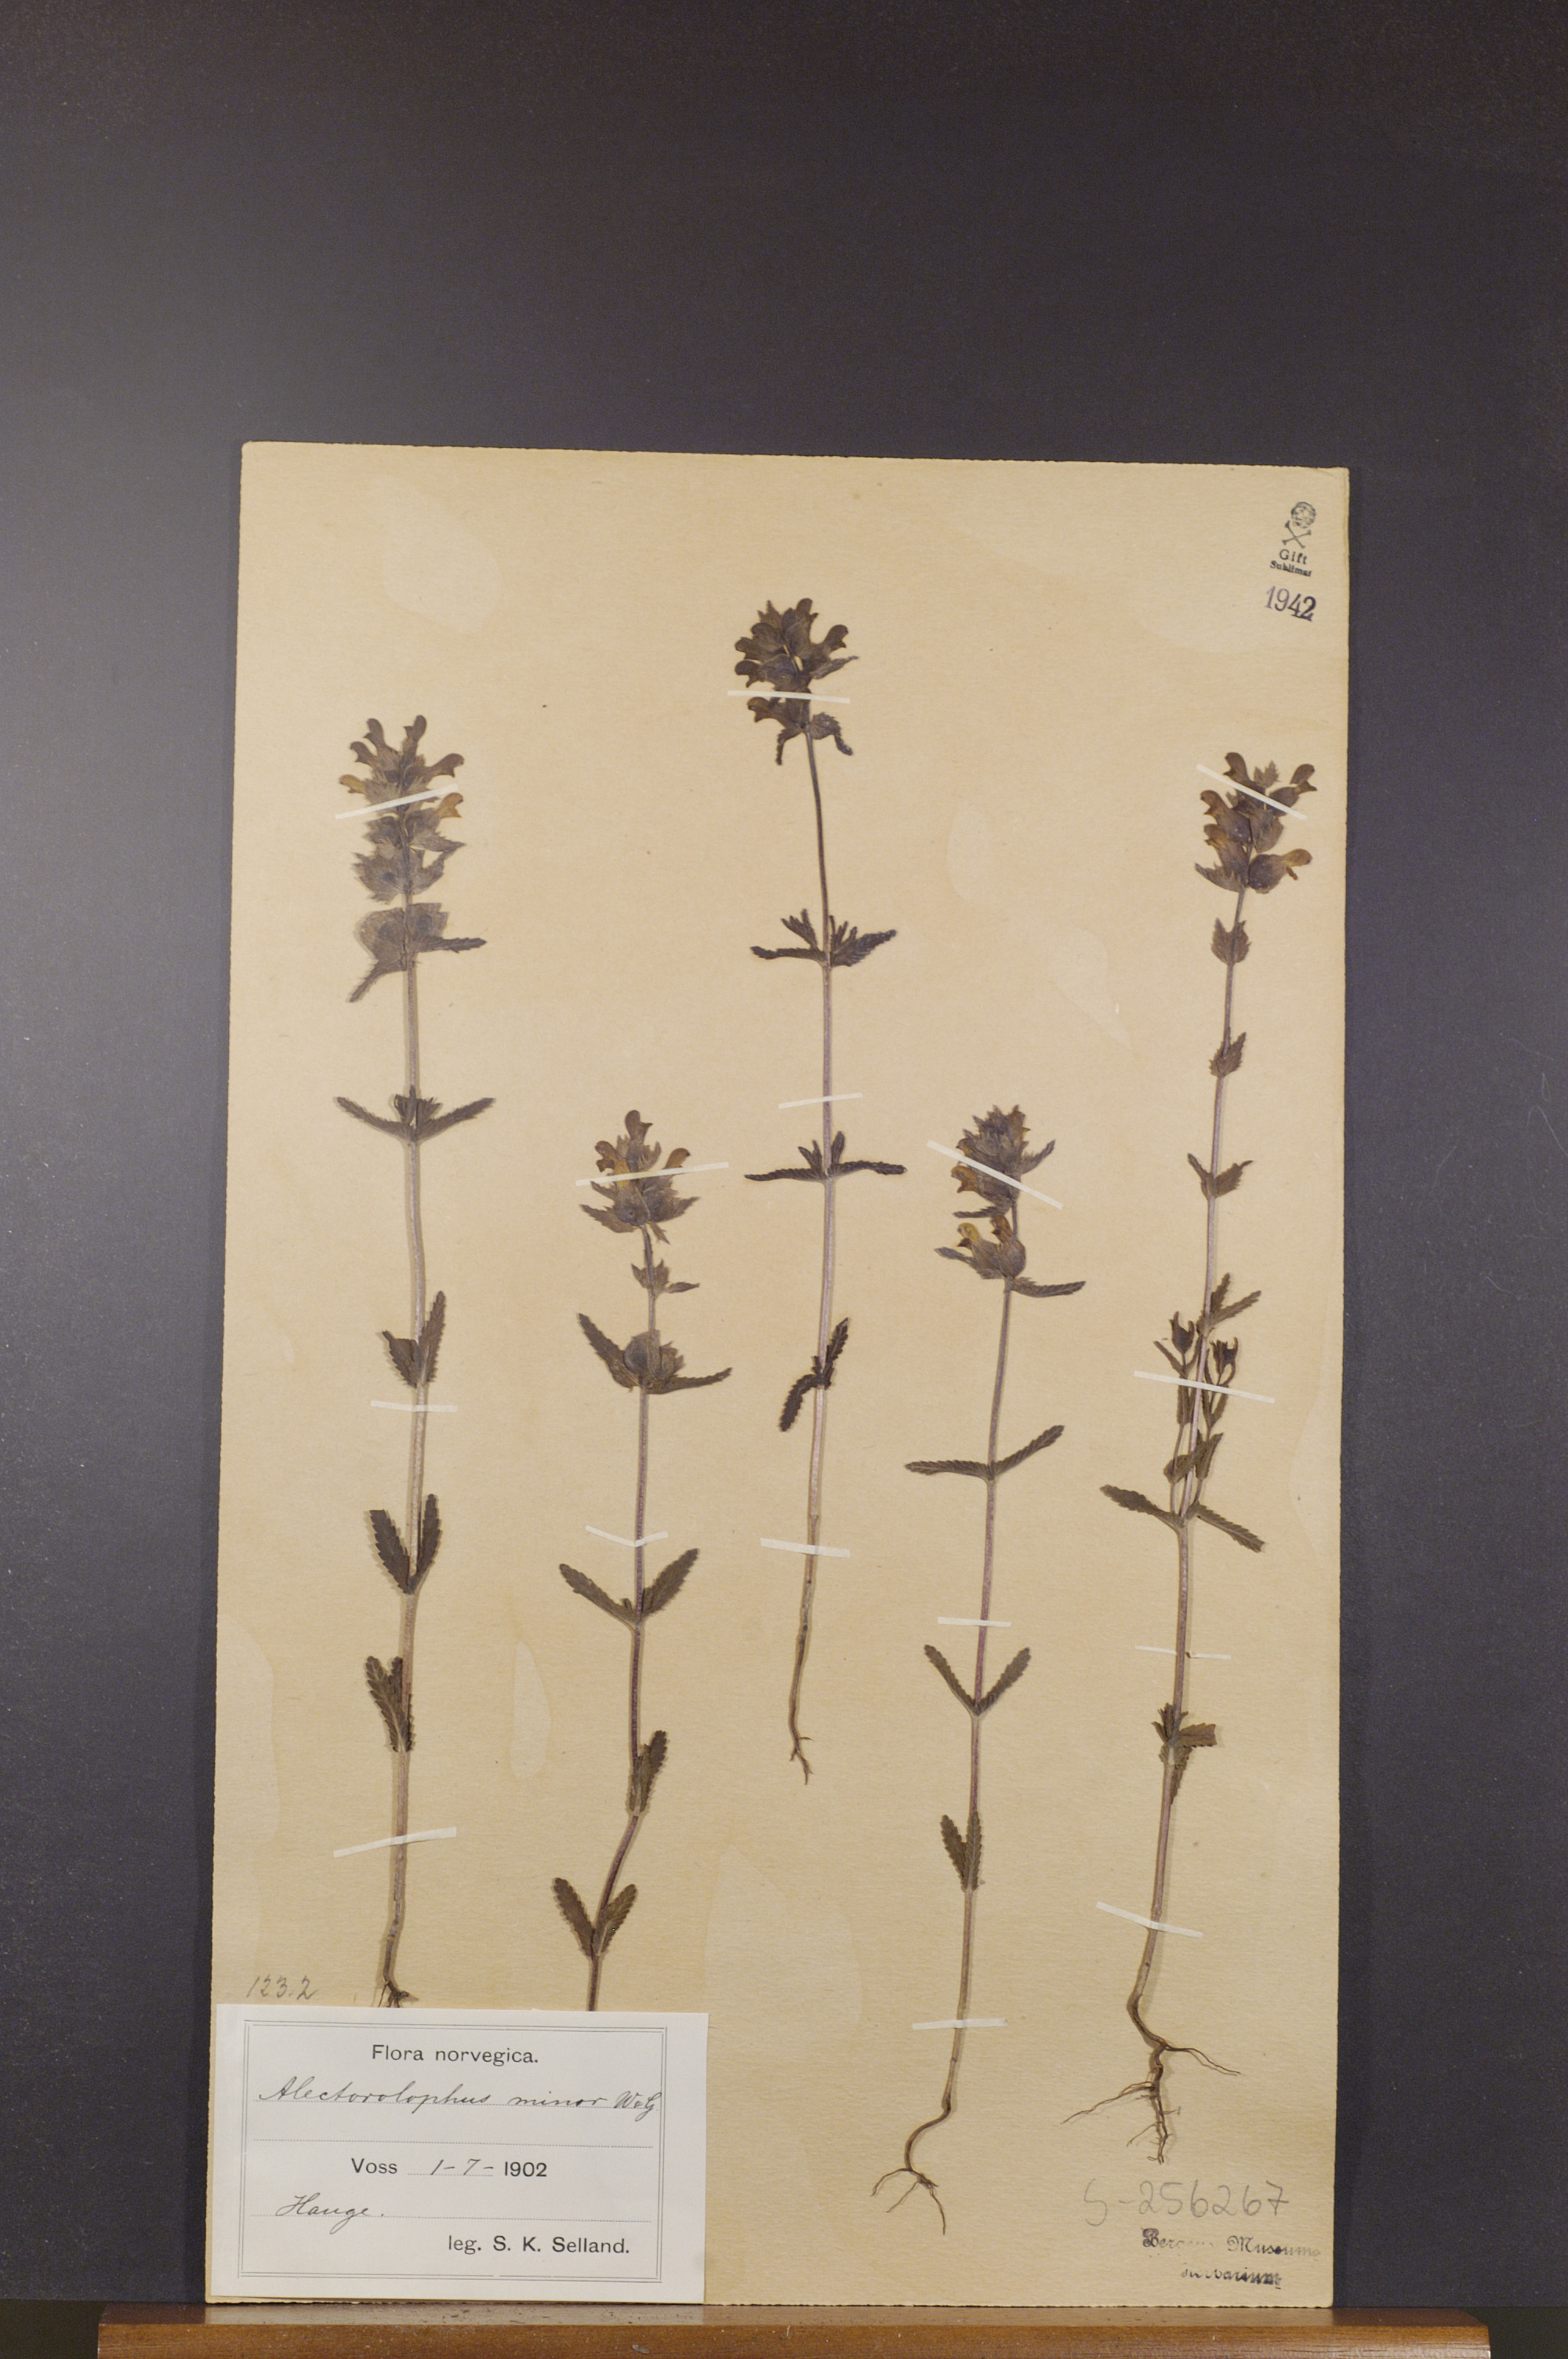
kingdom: Plantae
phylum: Tracheophyta
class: Magnoliopsida
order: Lamiales
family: Orobanchaceae
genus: Rhinanthus
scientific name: Rhinanthus minor
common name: Yellow-rattle
